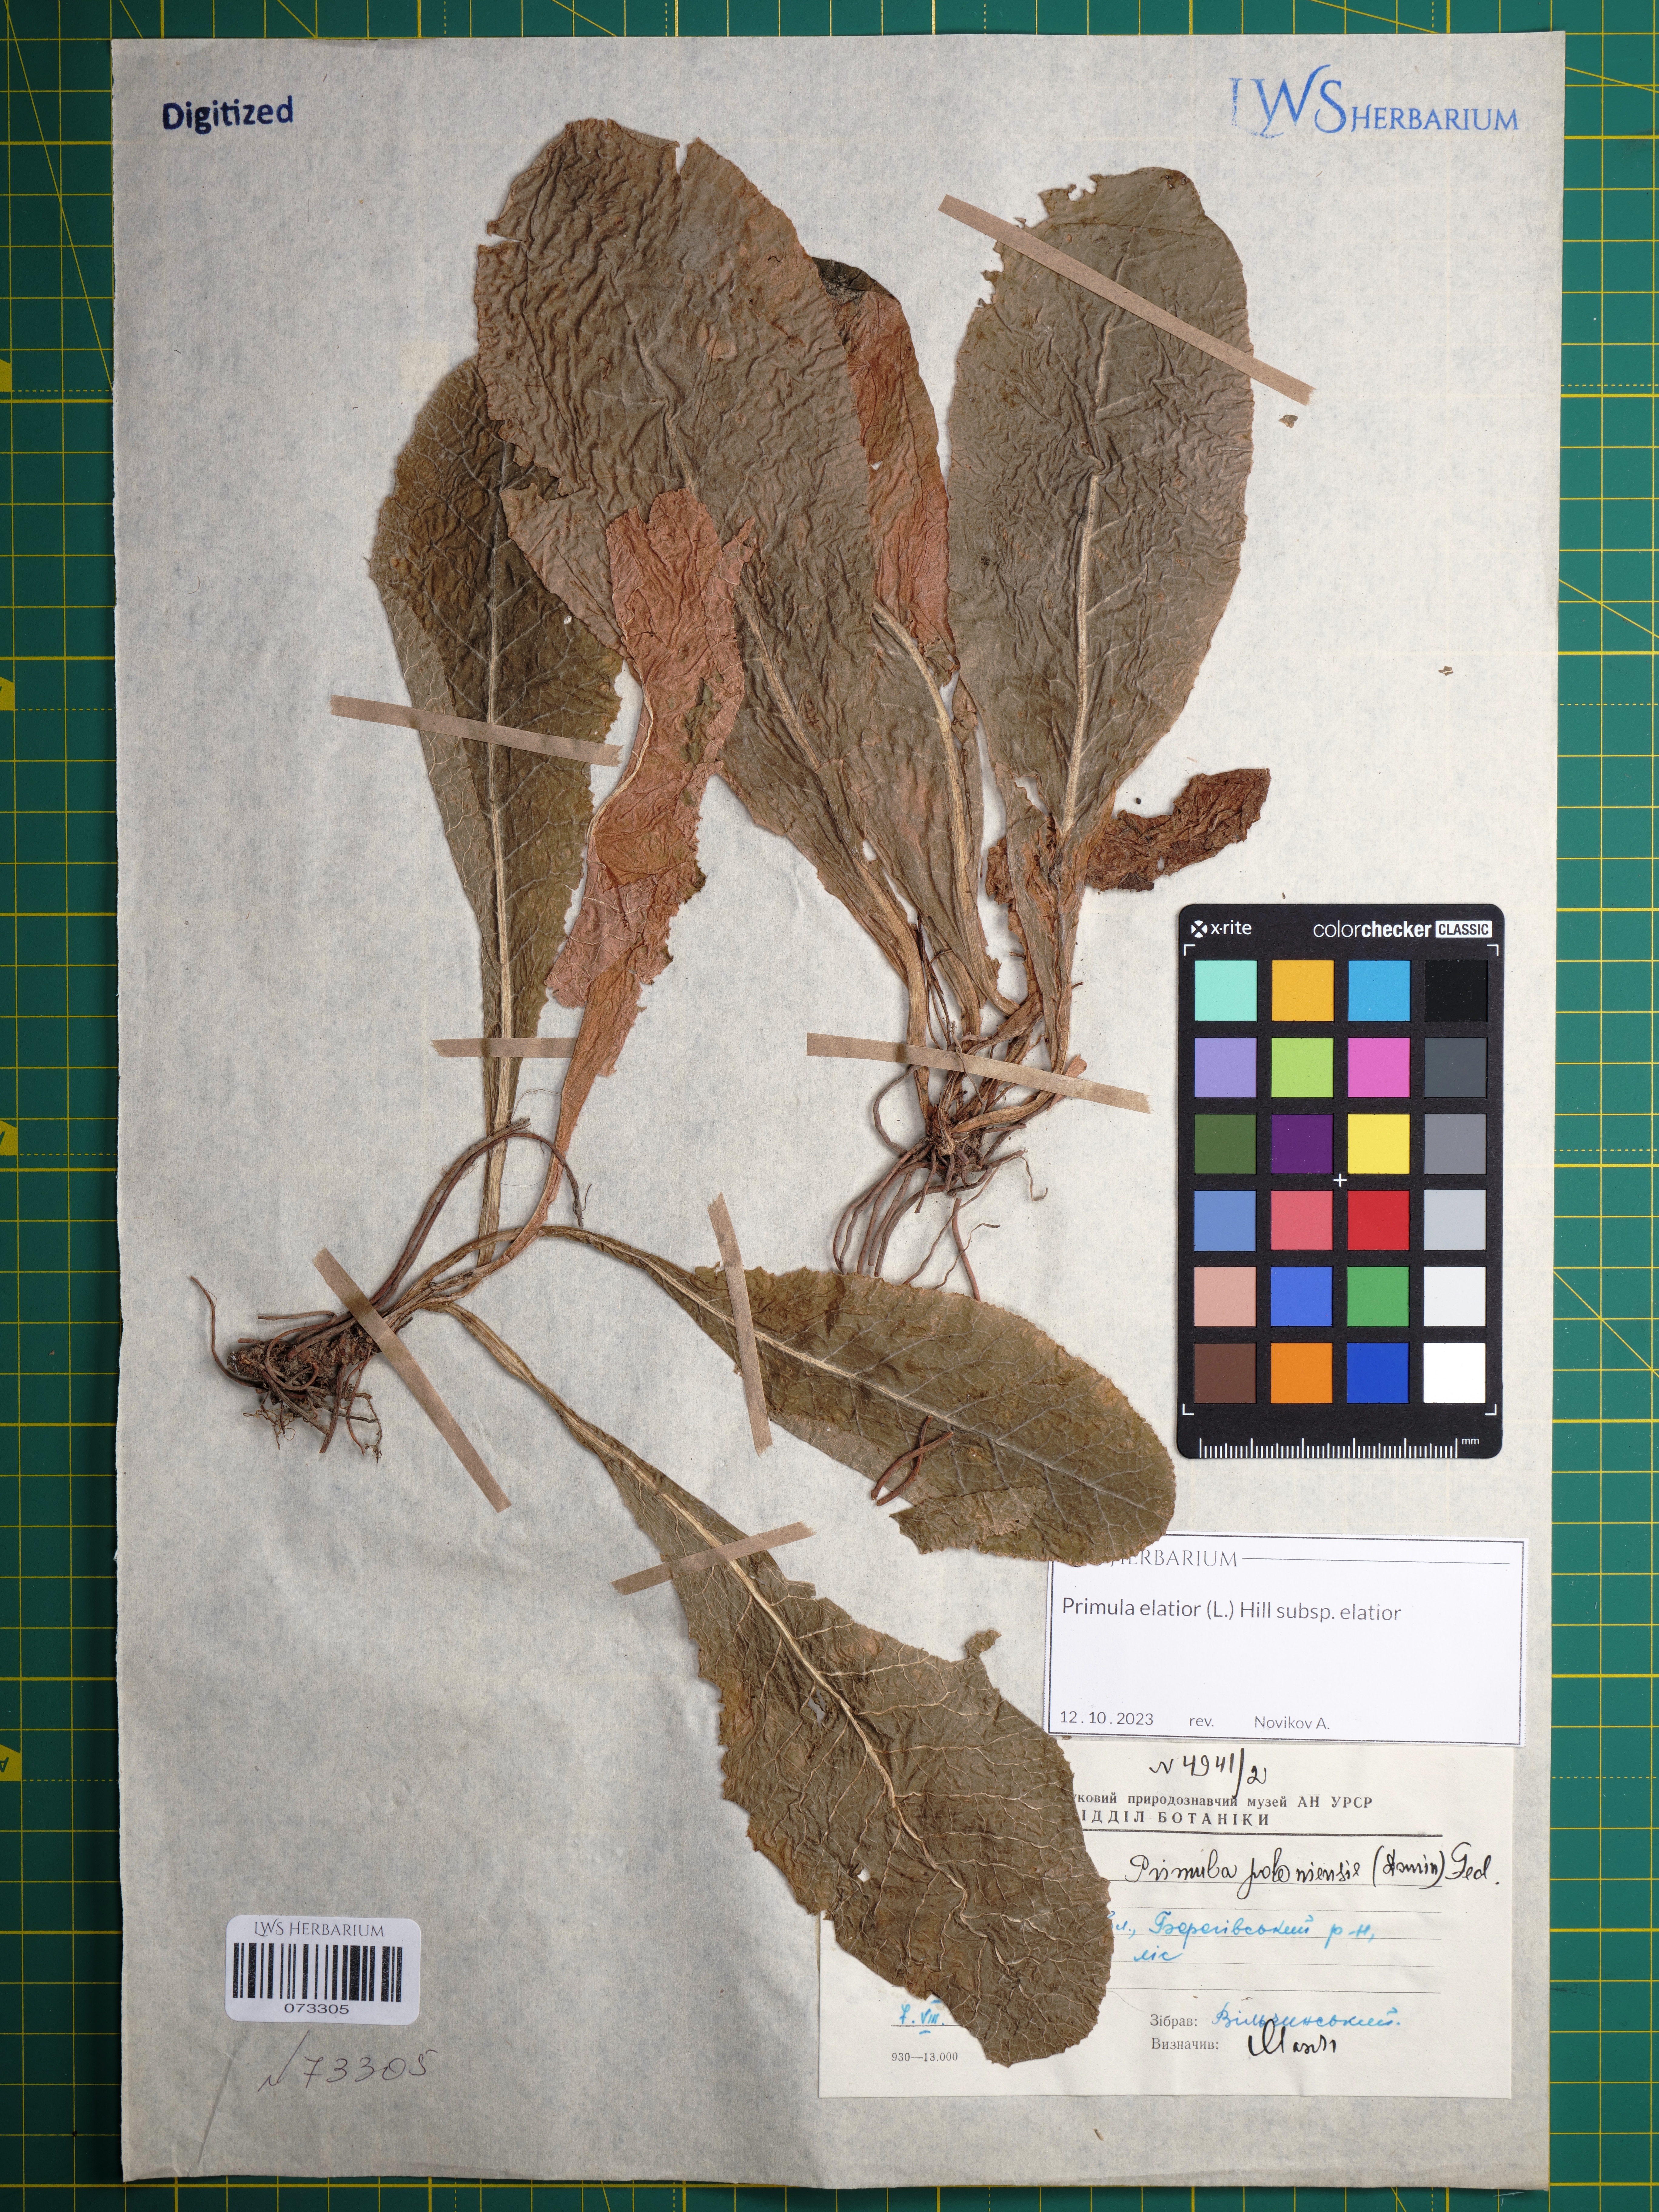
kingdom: Plantae
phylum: Tracheophyta
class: Magnoliopsida
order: Ericales
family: Primulaceae
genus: Primula
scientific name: Primula elatior
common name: Oxlip
